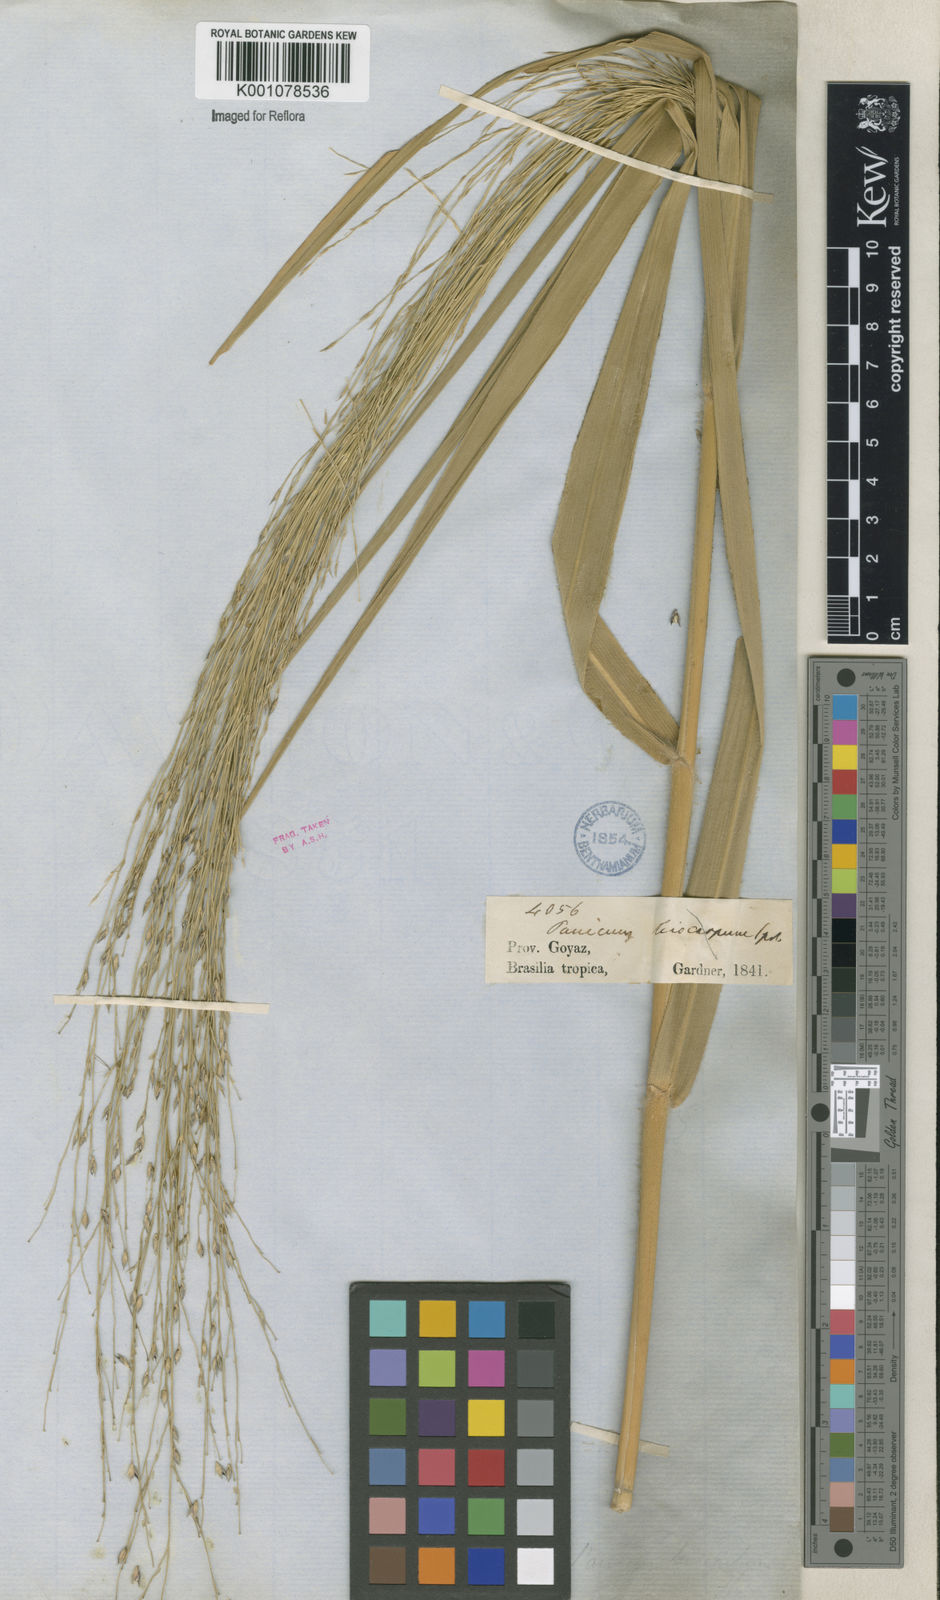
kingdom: Plantae
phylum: Tracheophyta
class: Liliopsida
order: Poales
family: Poaceae
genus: Panicum
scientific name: Panicum ligulare
